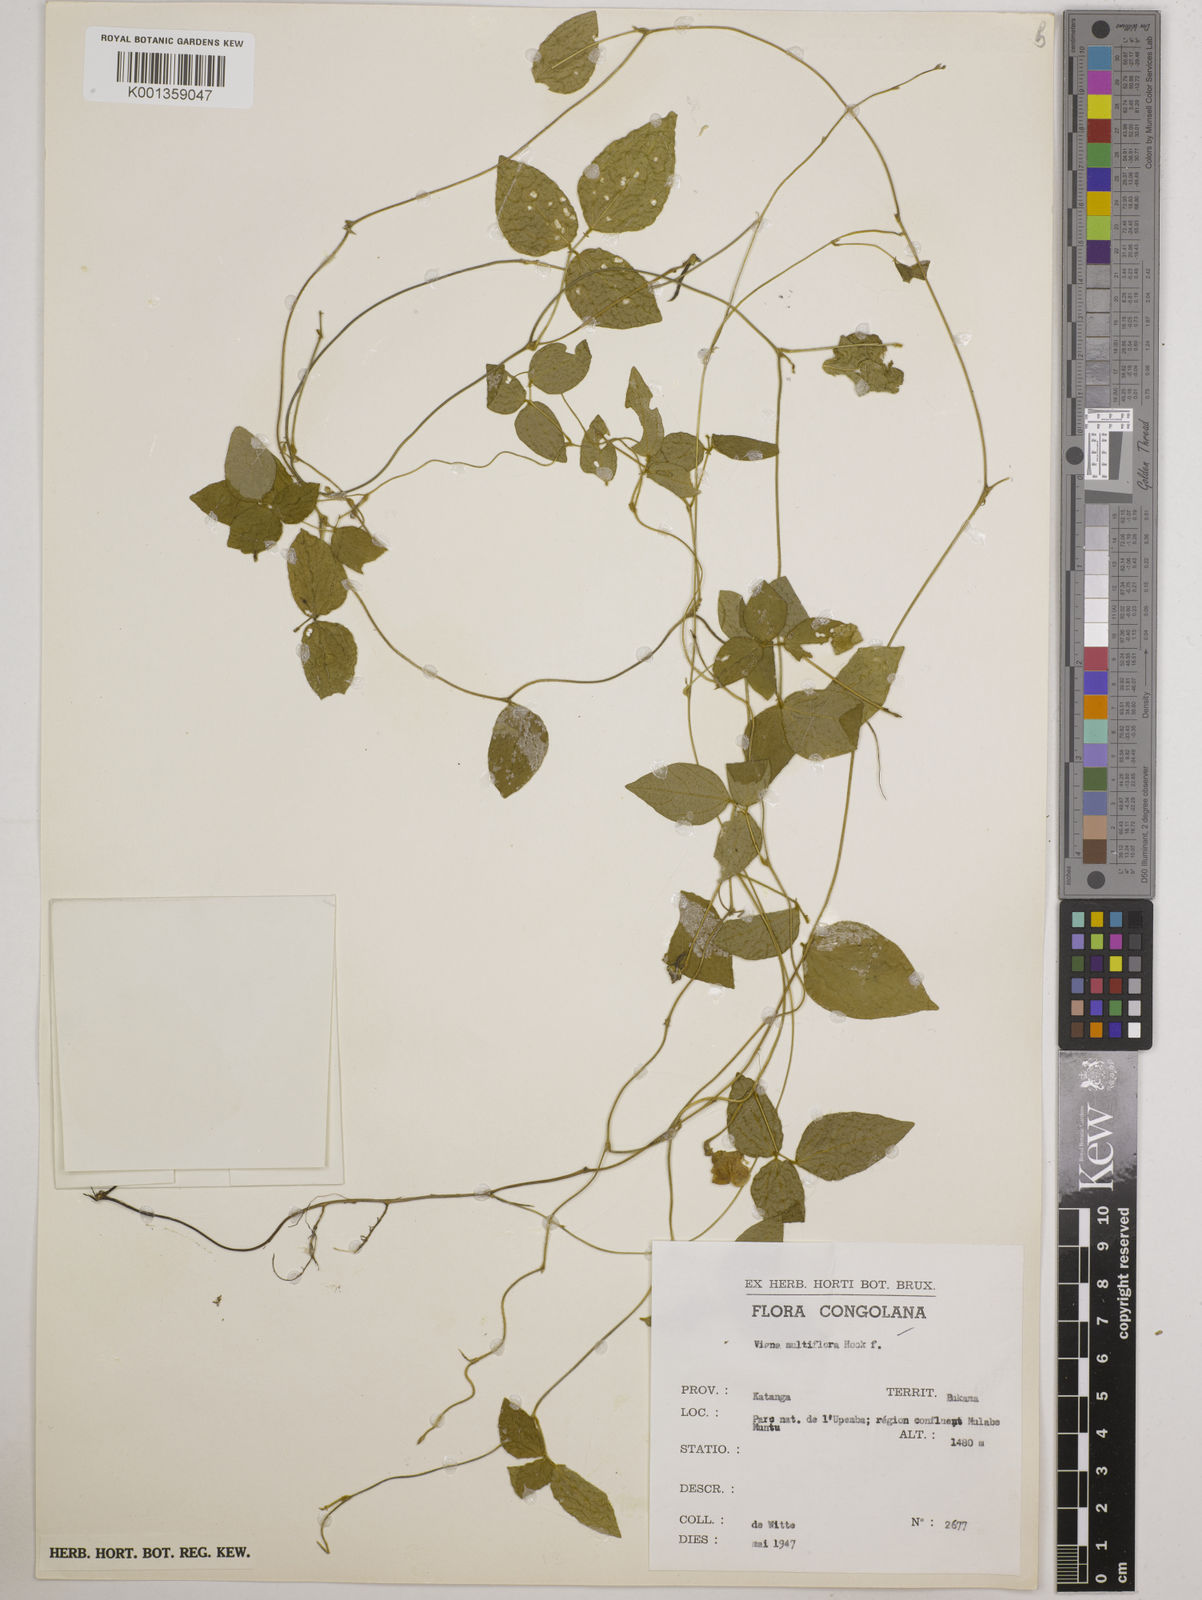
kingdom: Plantae
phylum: Tracheophyta
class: Magnoliopsida
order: Fabales
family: Fabaceae
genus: Vigna
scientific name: Vigna gracilis
